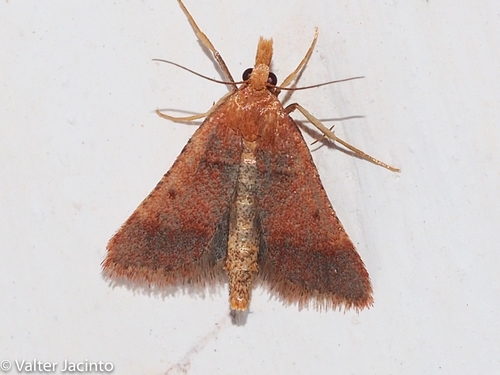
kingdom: Animalia
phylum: Arthropoda
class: Insecta
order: Lepidoptera
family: Pyralidae
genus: Stemmatophora
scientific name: Stemmatophora brunnealis
